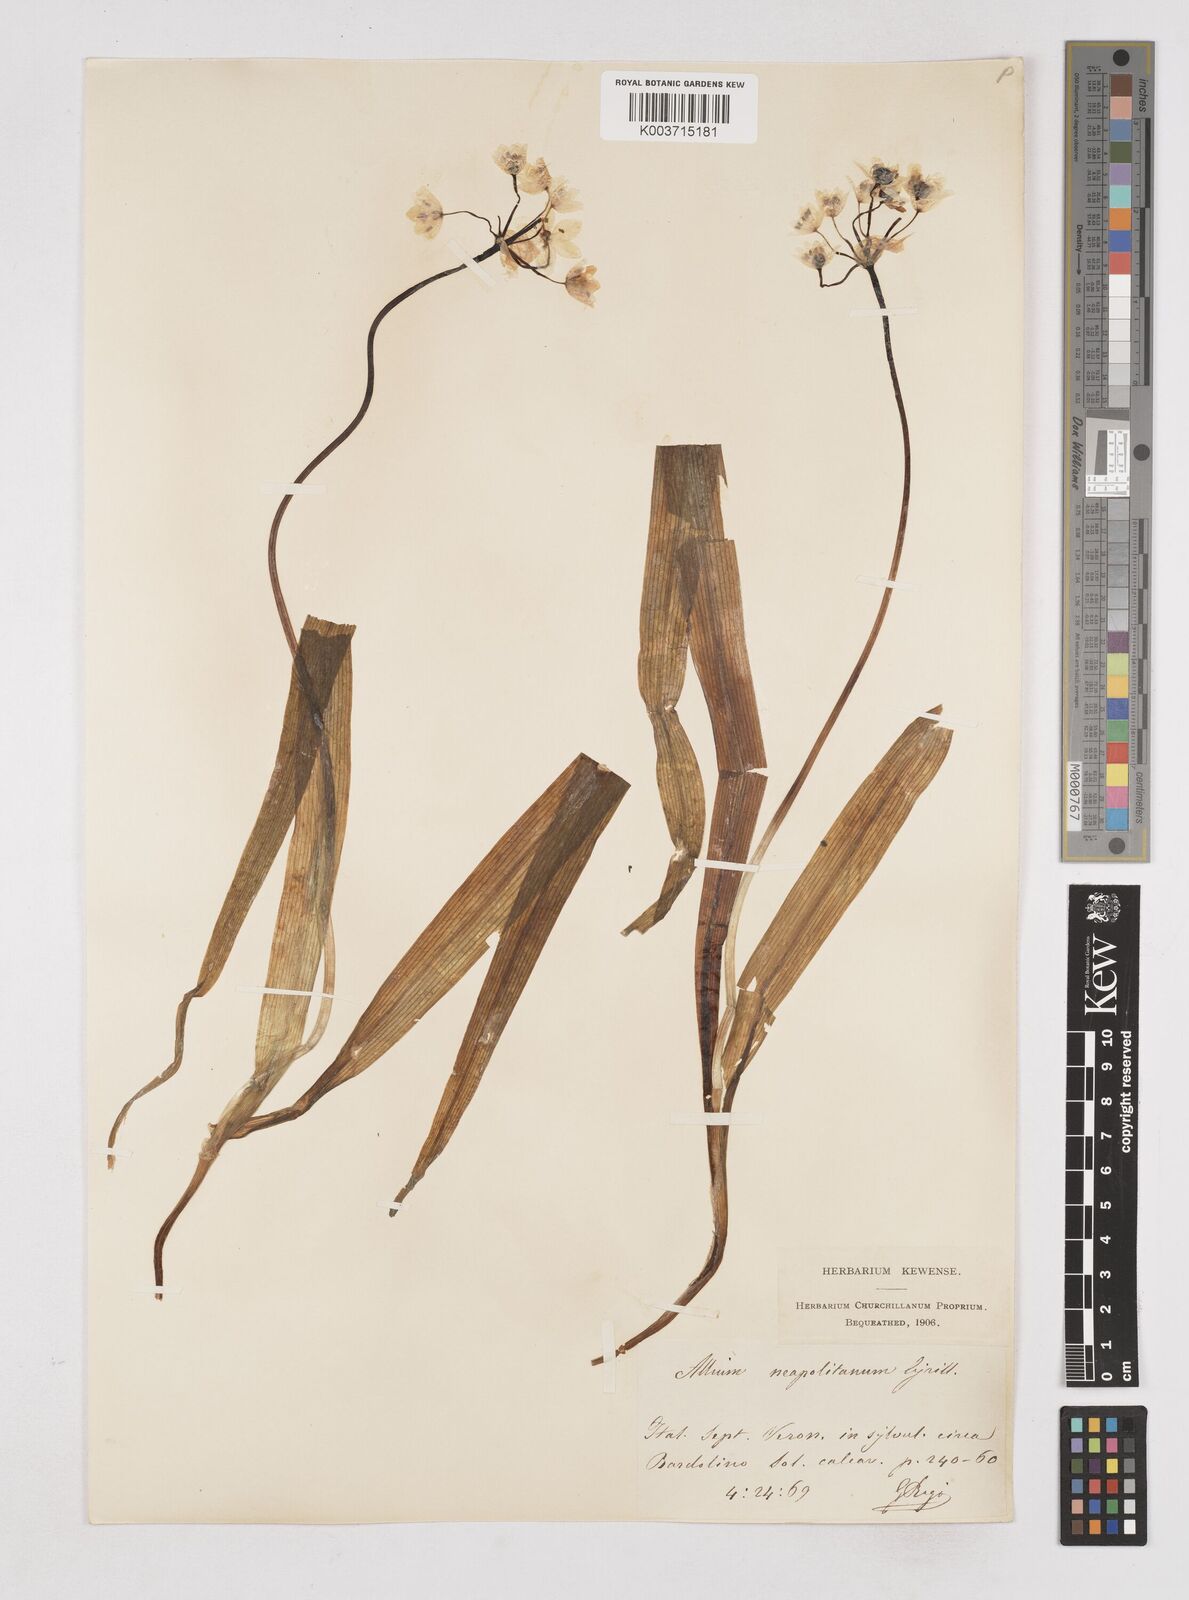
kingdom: Plantae
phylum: Tracheophyta
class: Liliopsida
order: Asparagales
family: Amaryllidaceae
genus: Allium
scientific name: Allium neapolitanum
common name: Neapolitan garlic
